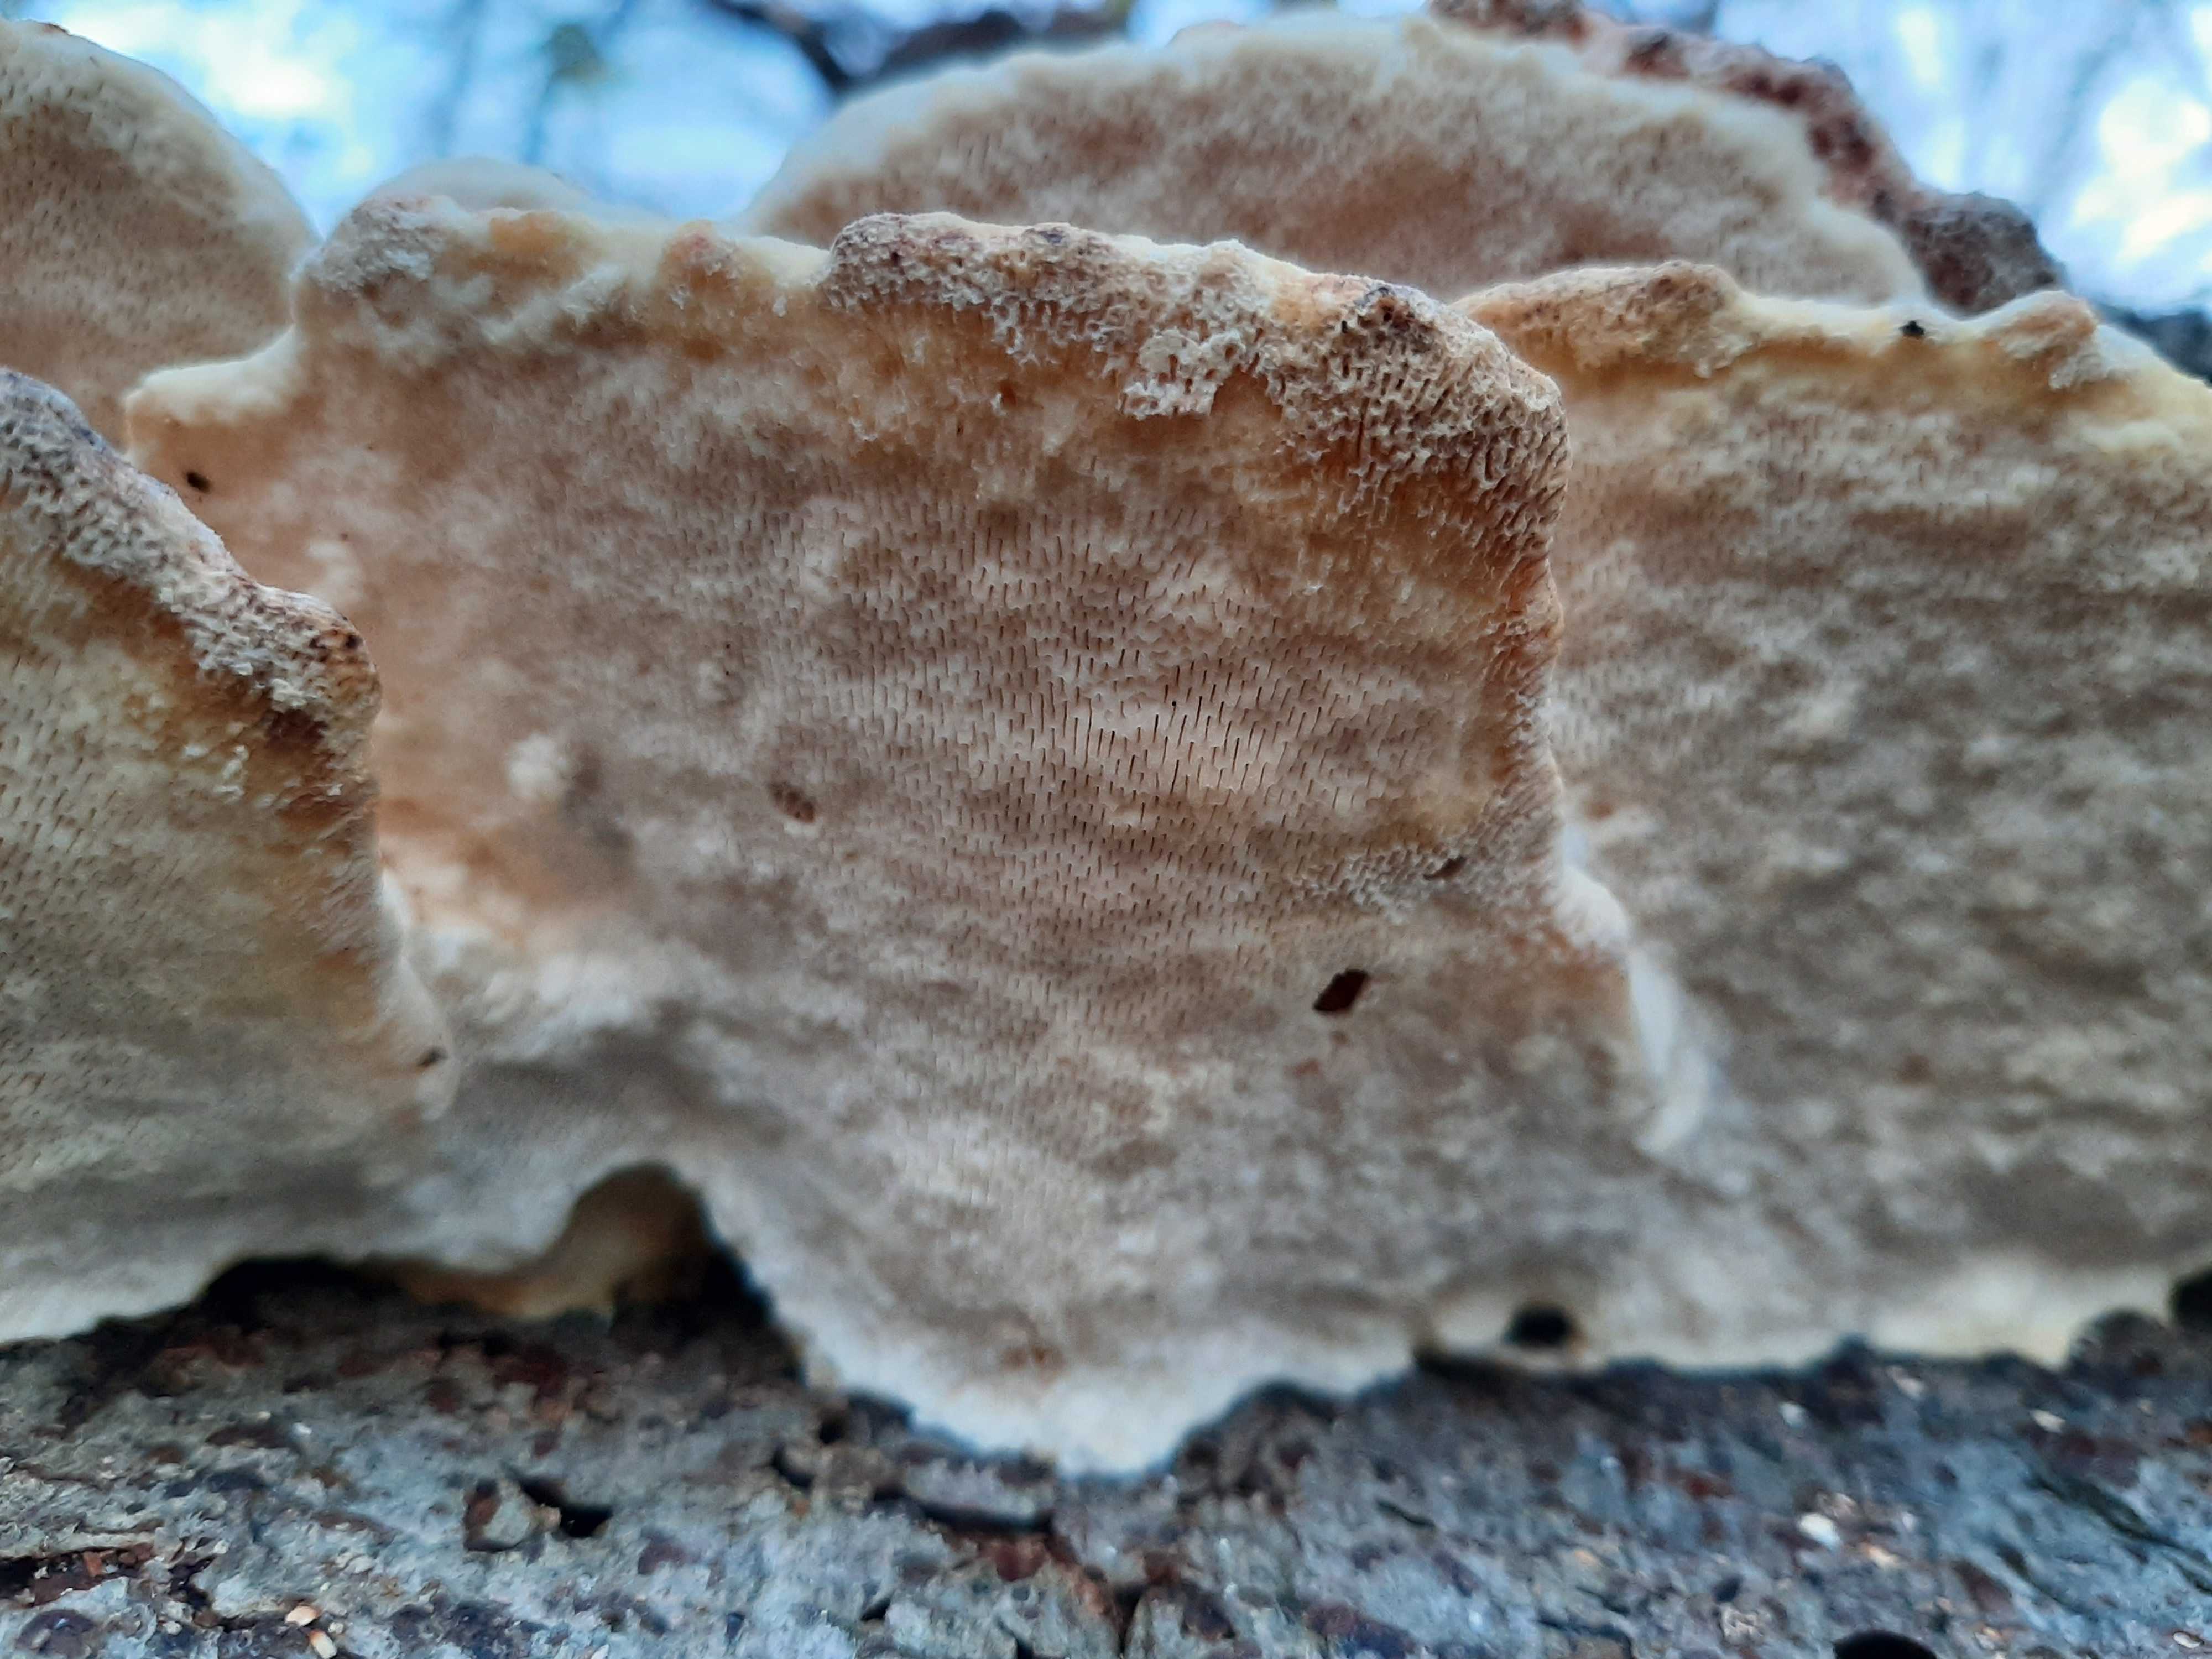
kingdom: Fungi
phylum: Basidiomycota
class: Agaricomycetes
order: Polyporales
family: Polyporaceae
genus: Trametes
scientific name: Trametes gibbosa
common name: puklet læderporesvamp
